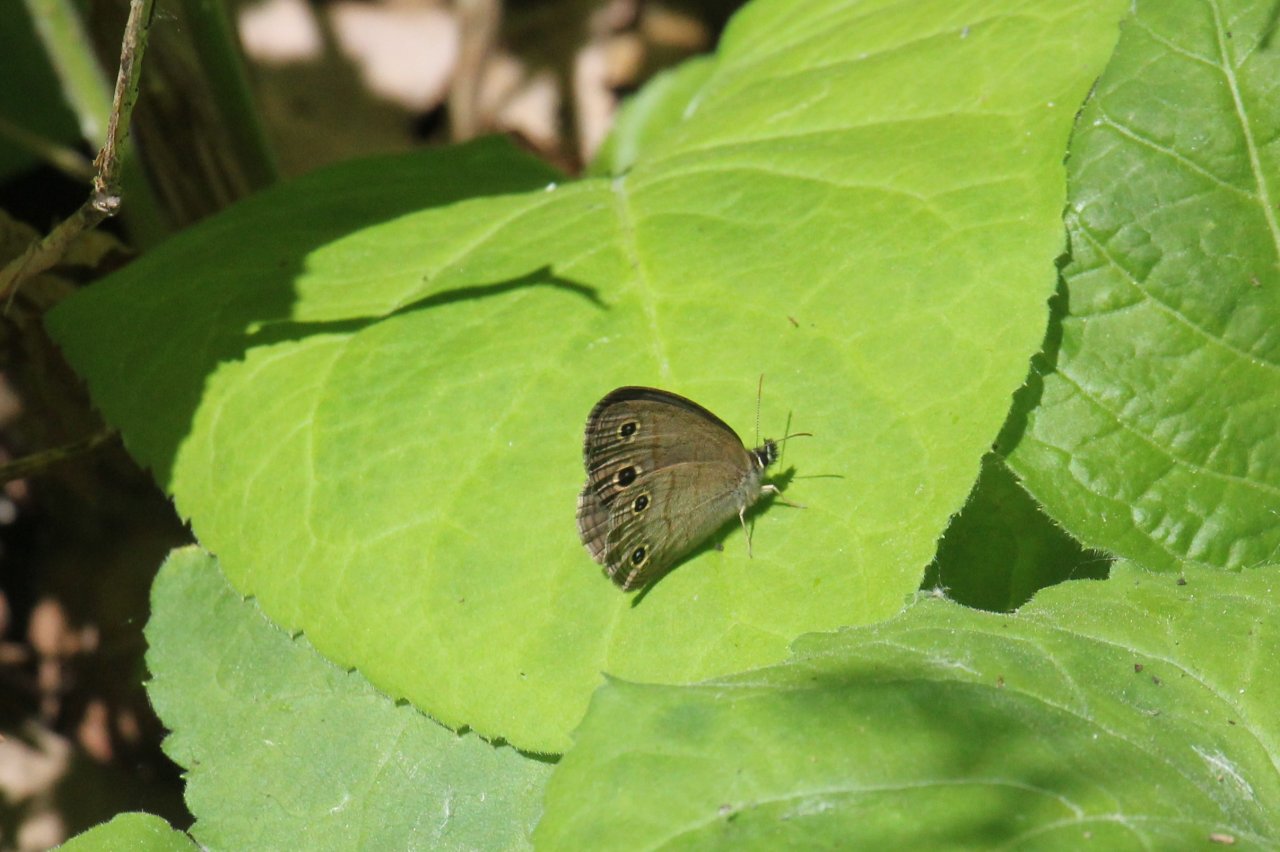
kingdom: Animalia
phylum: Arthropoda
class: Insecta
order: Lepidoptera
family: Nymphalidae
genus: Euptychia
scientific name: Euptychia cymela
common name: Little Wood Satyr
